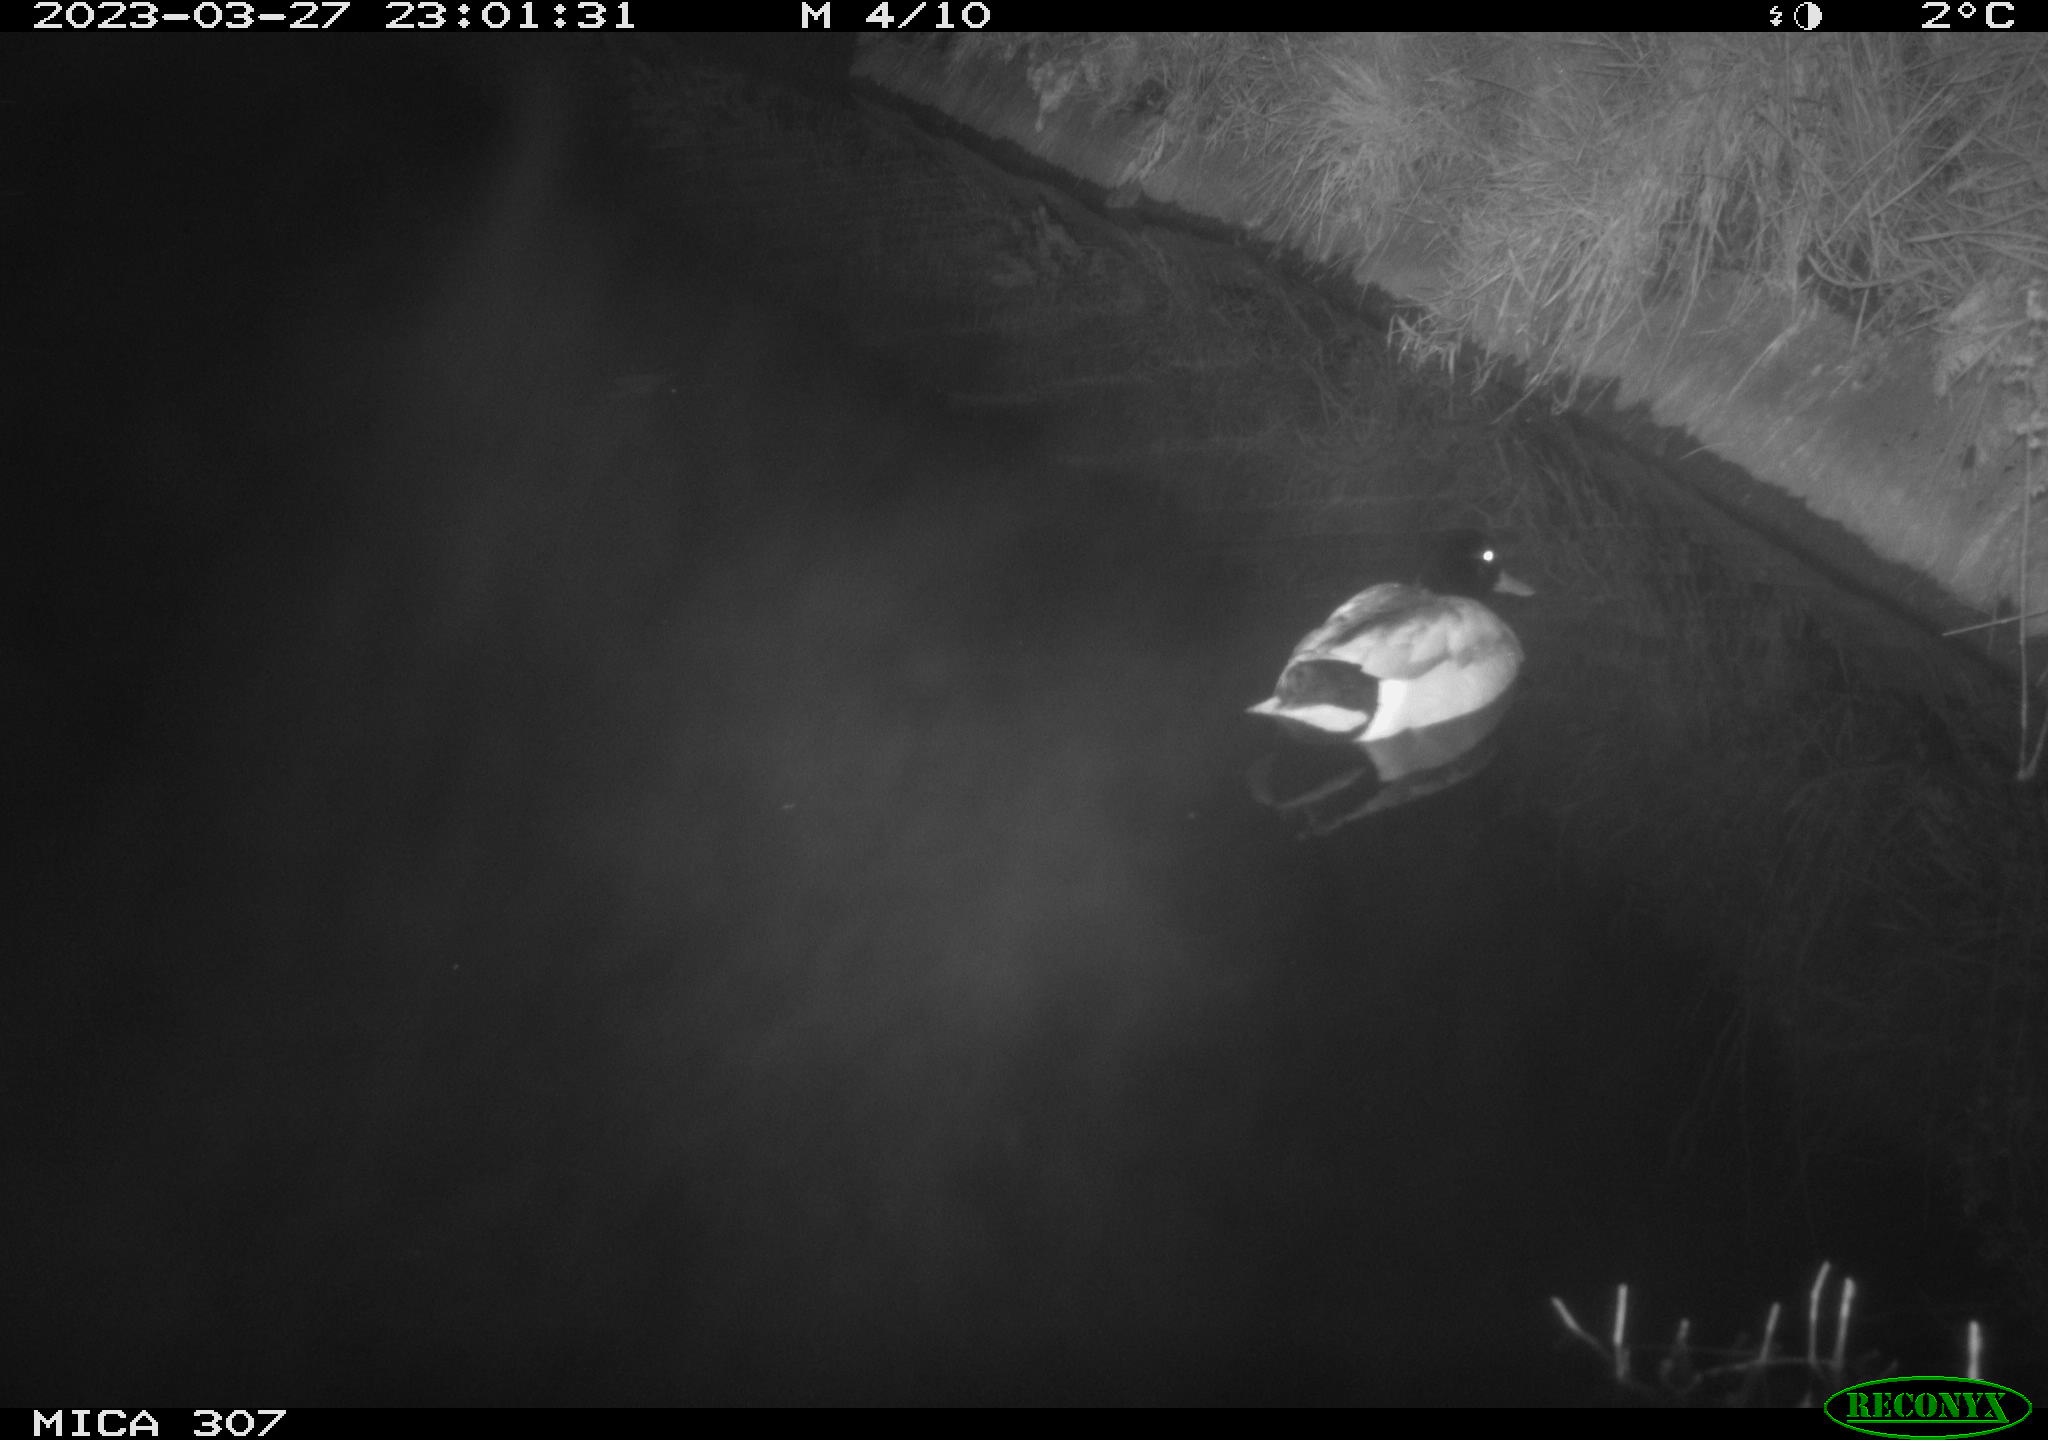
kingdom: Animalia
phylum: Chordata
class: Aves
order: Anseriformes
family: Anatidae
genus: Anas
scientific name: Anas
